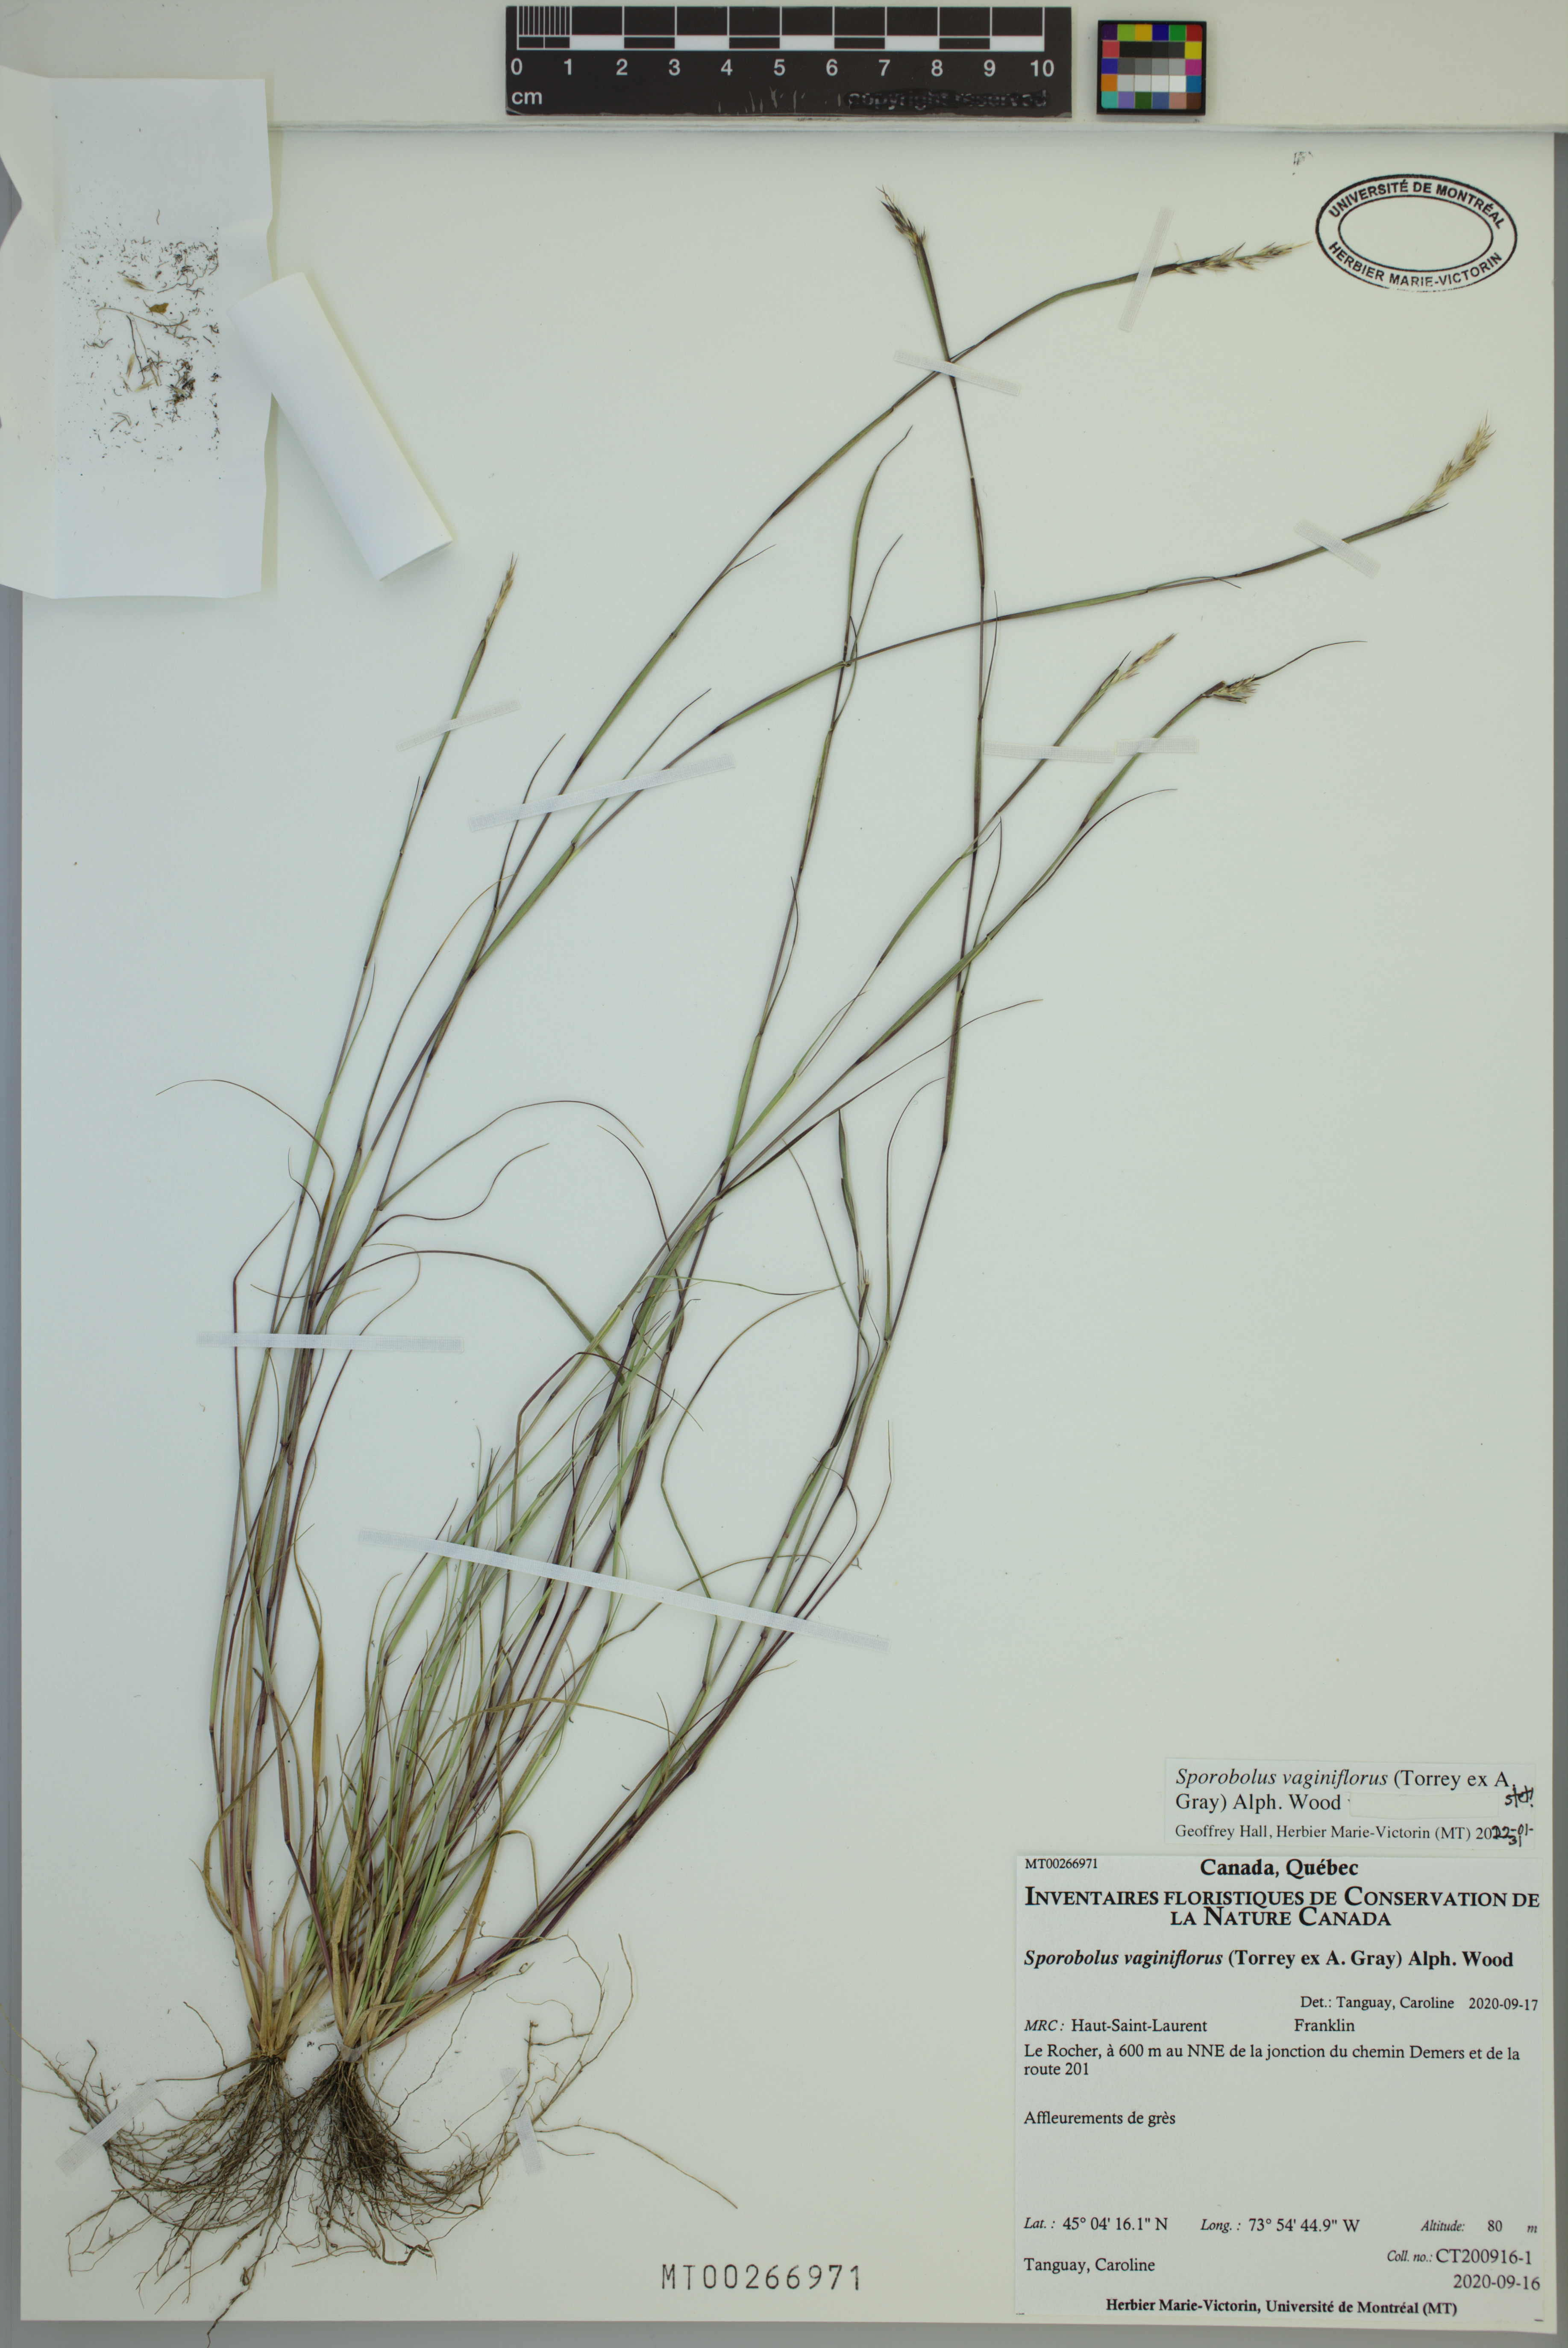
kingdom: Plantae
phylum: Tracheophyta
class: Liliopsida
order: Poales
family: Poaceae
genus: Sporobolus
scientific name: Sporobolus vaginiflorus
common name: Poverty dropseed
